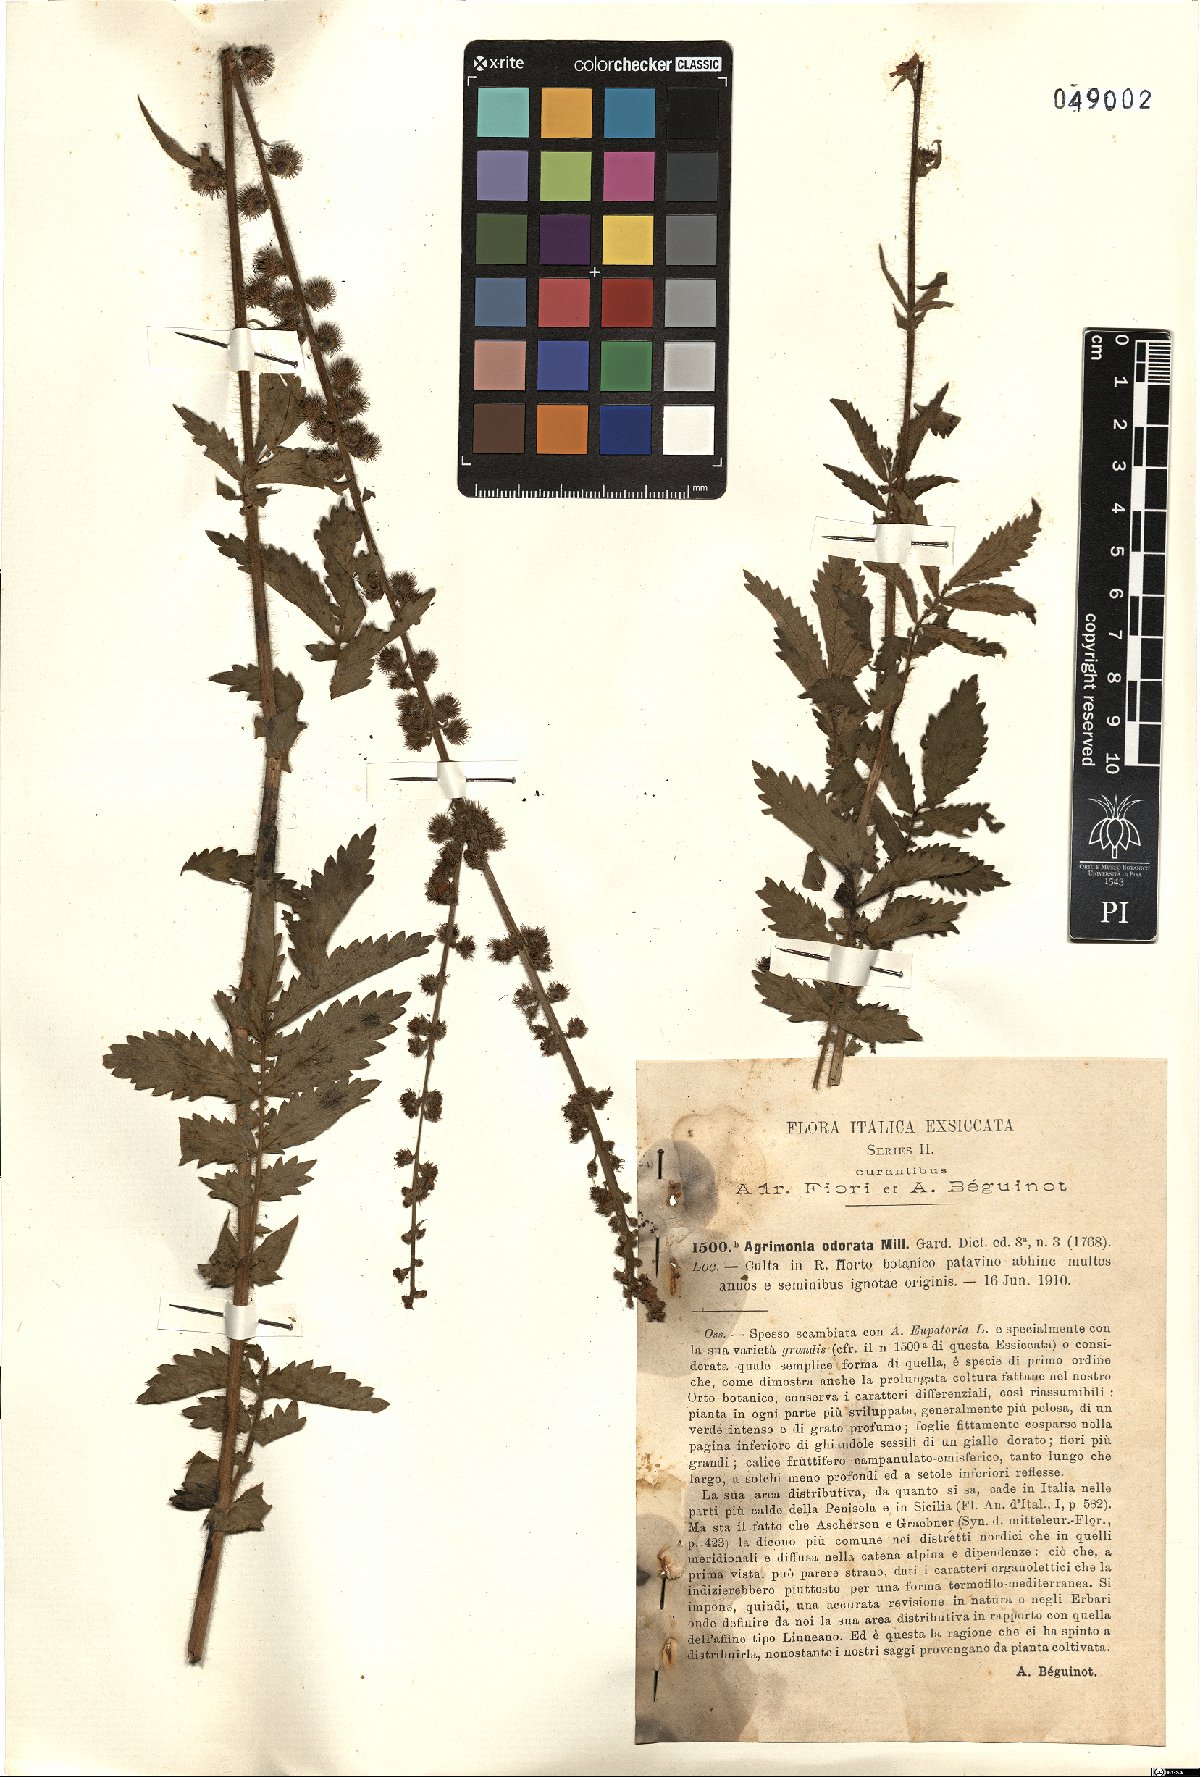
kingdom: Plantae
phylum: Tracheophyta
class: Magnoliopsida
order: Rosales
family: Rosaceae
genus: Agrimonia
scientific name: Agrimonia repens
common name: Creeping agrimony
